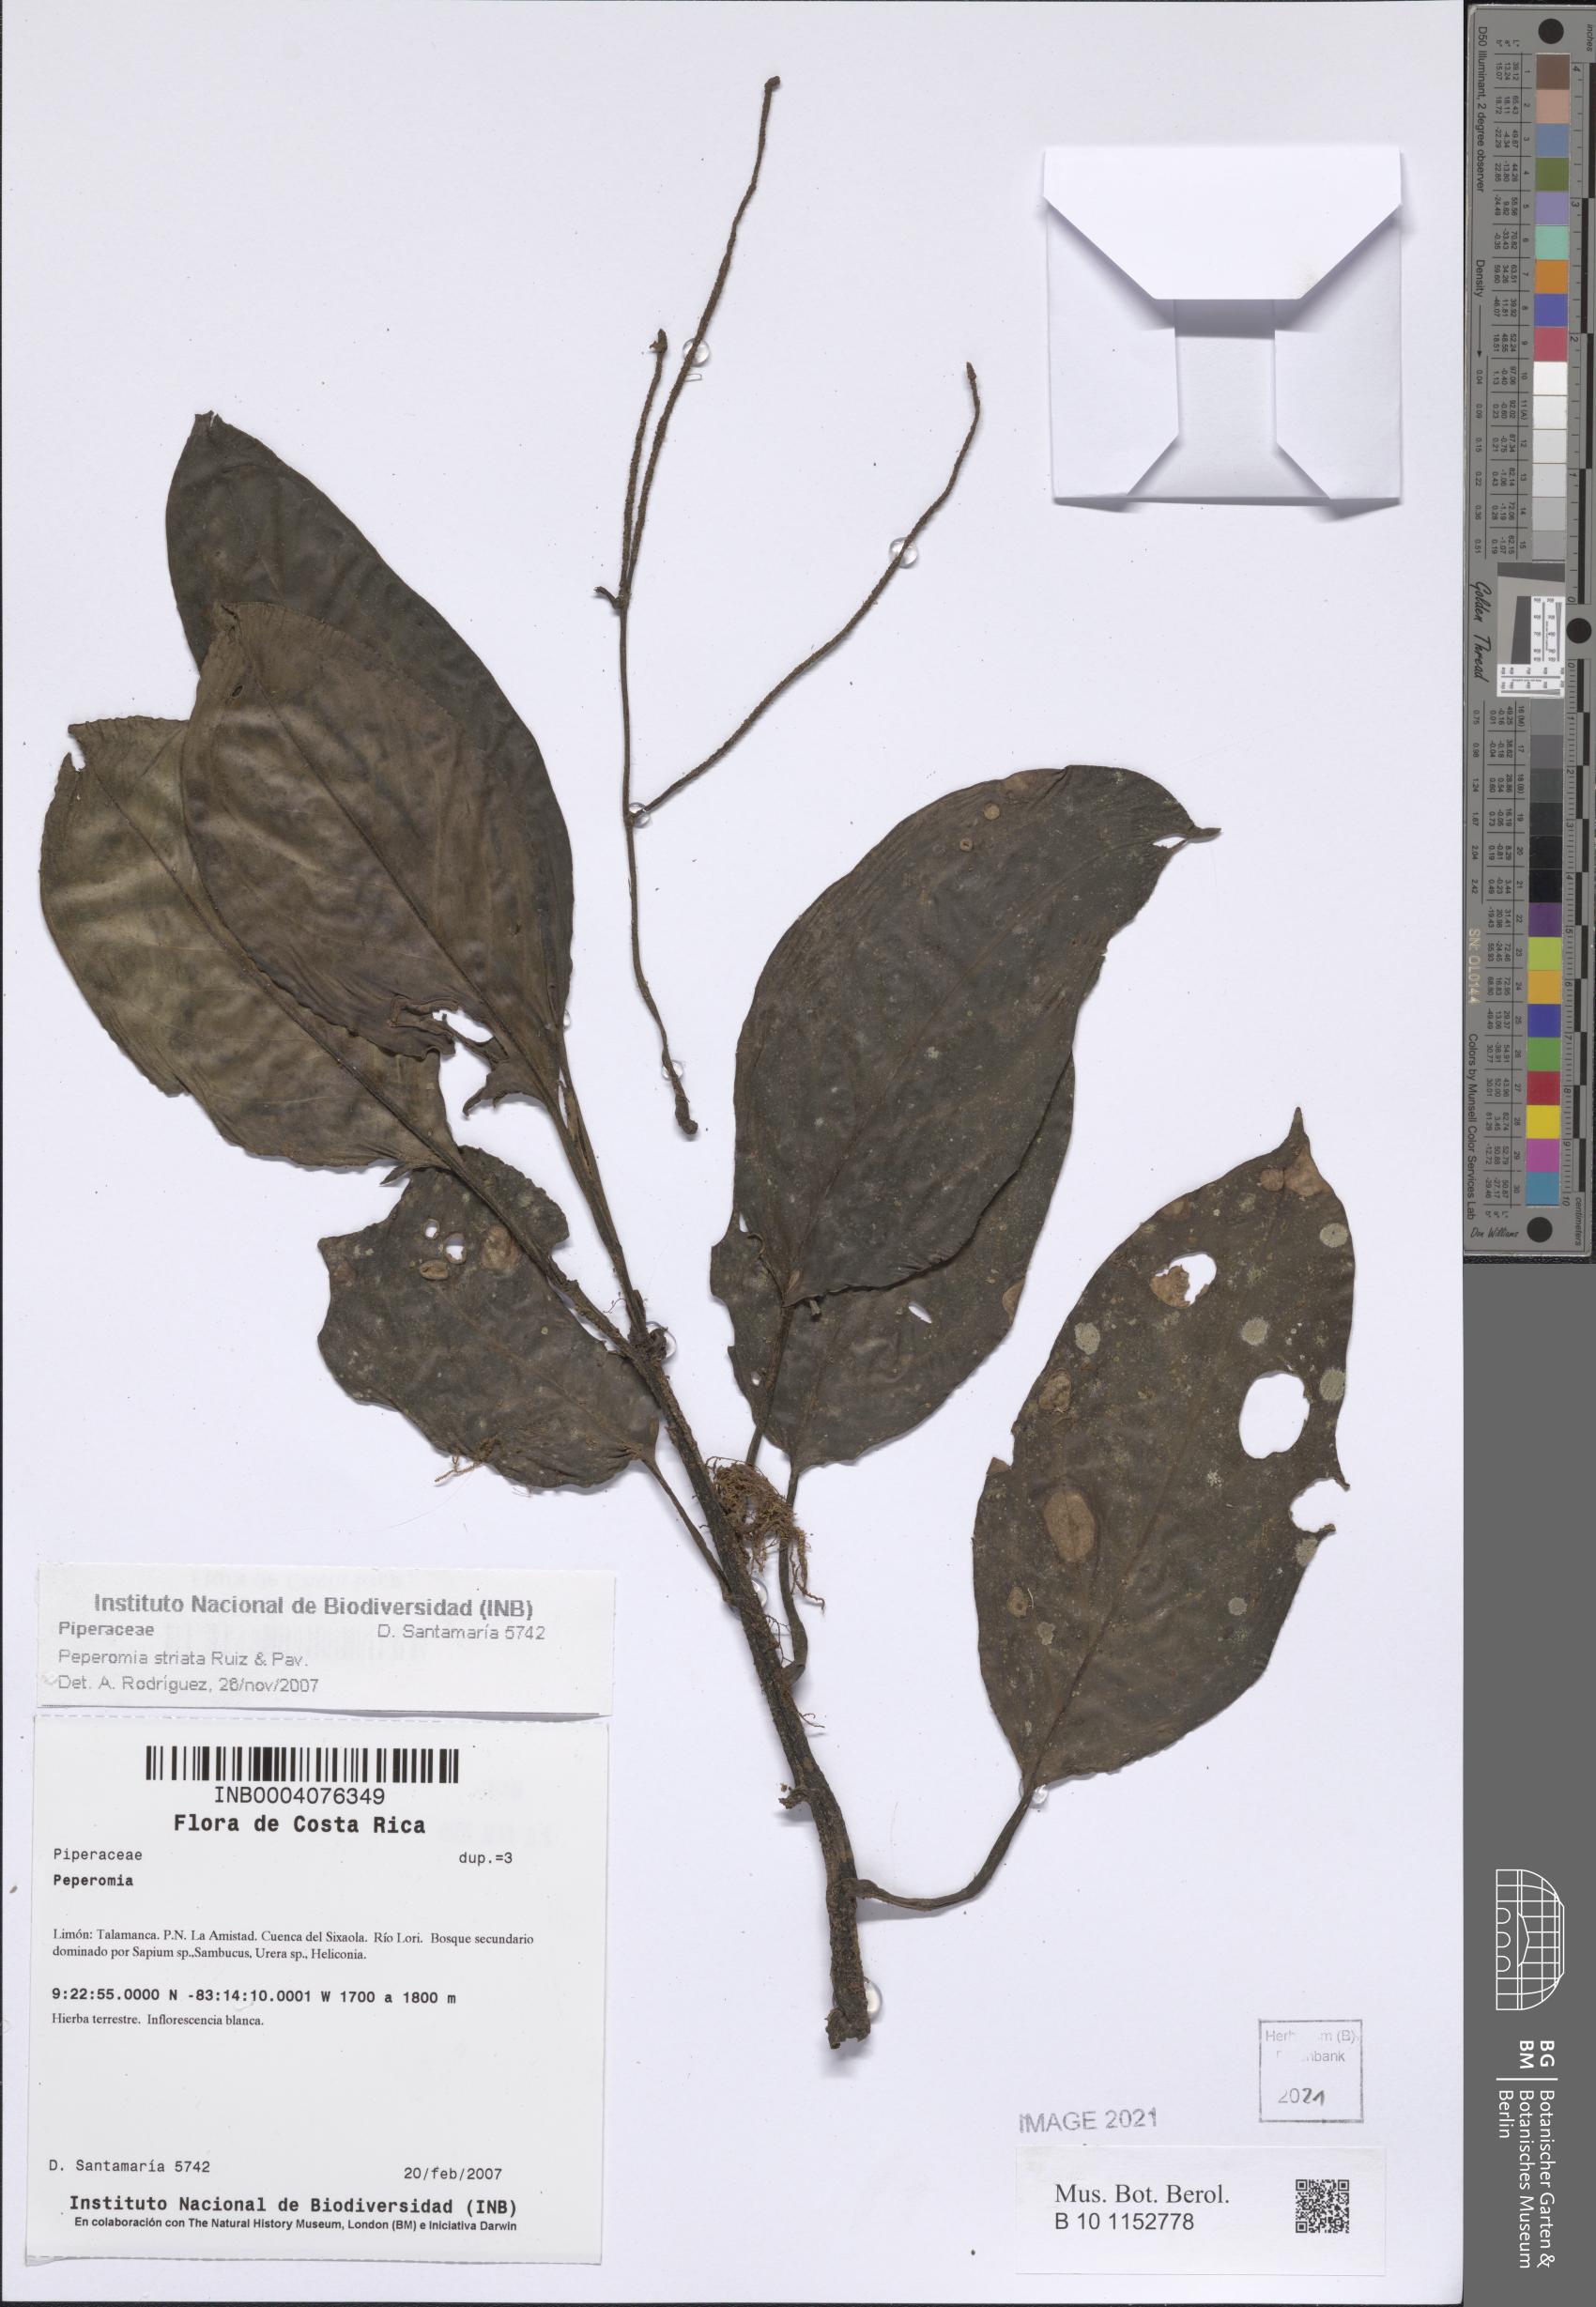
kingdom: Plantae
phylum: Tracheophyta
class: Magnoliopsida
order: Piperales
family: Piperaceae
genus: Peperomia
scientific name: Peperomia striata
